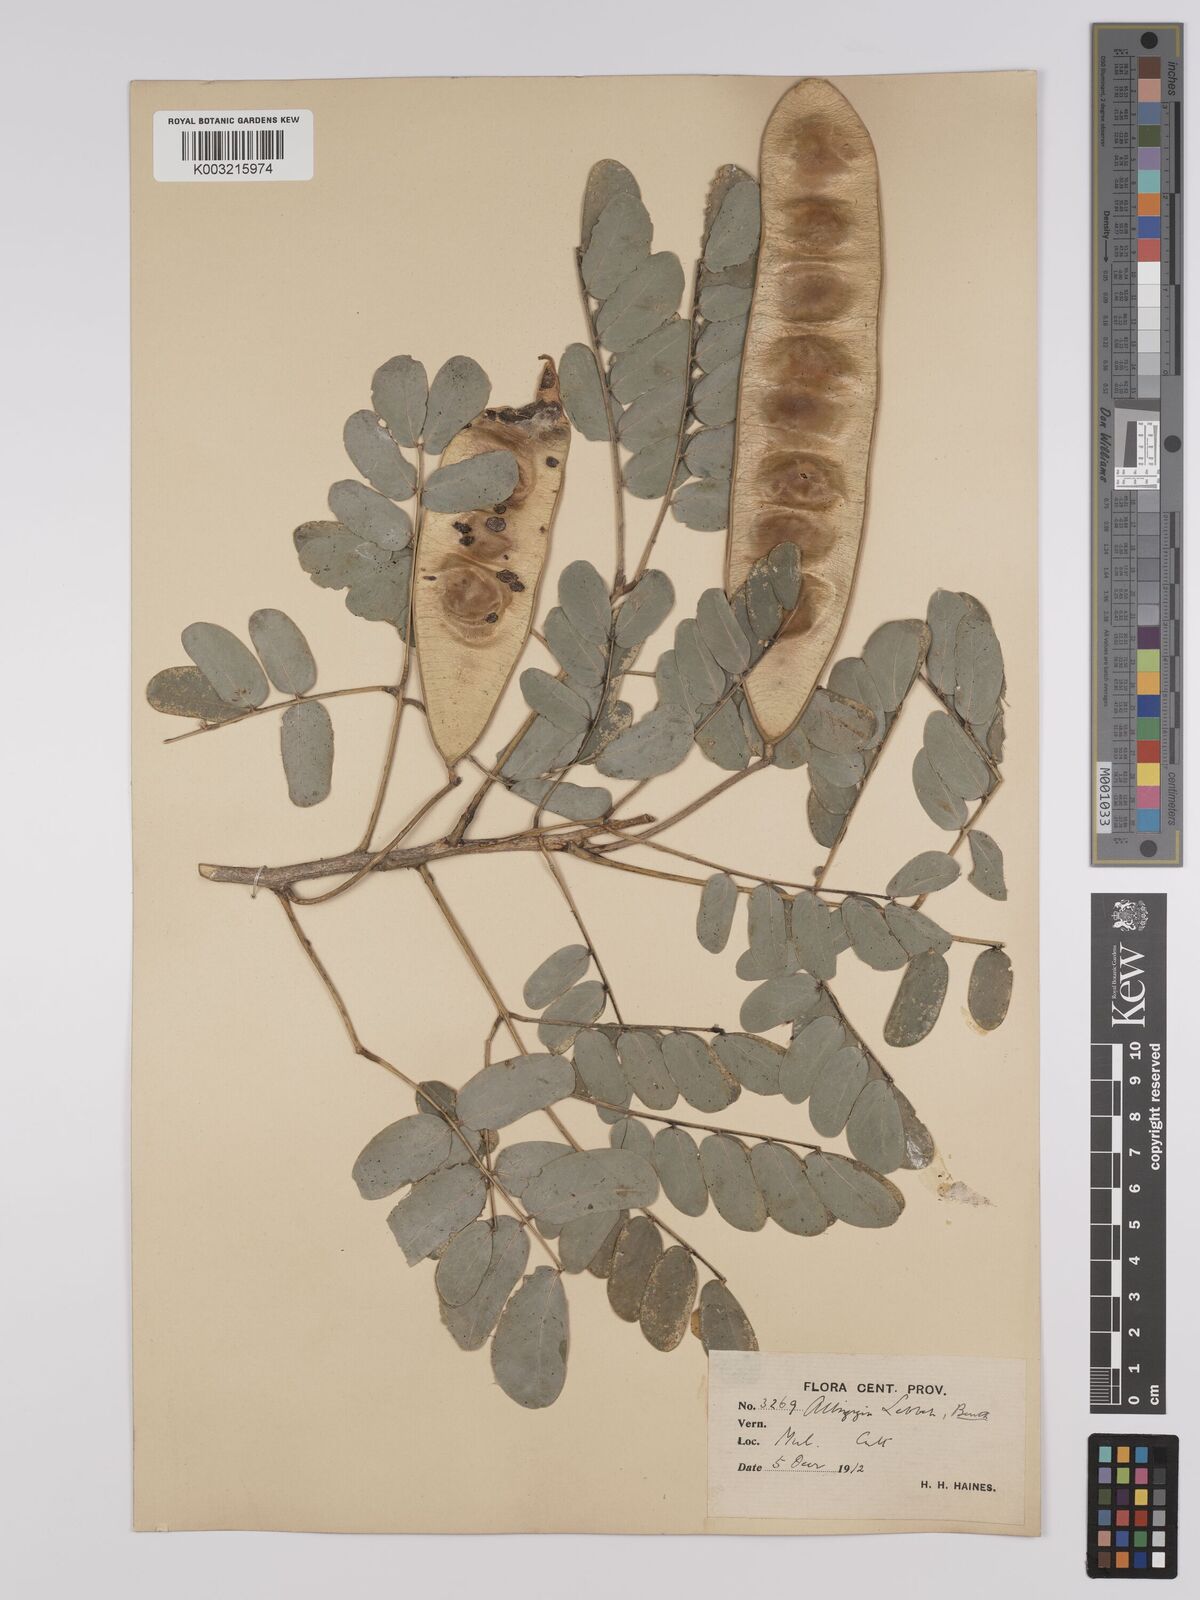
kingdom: Plantae
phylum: Tracheophyta
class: Magnoliopsida
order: Fabales
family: Fabaceae
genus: Albizia
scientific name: Albizia lebbeck
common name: Woman's tongue
